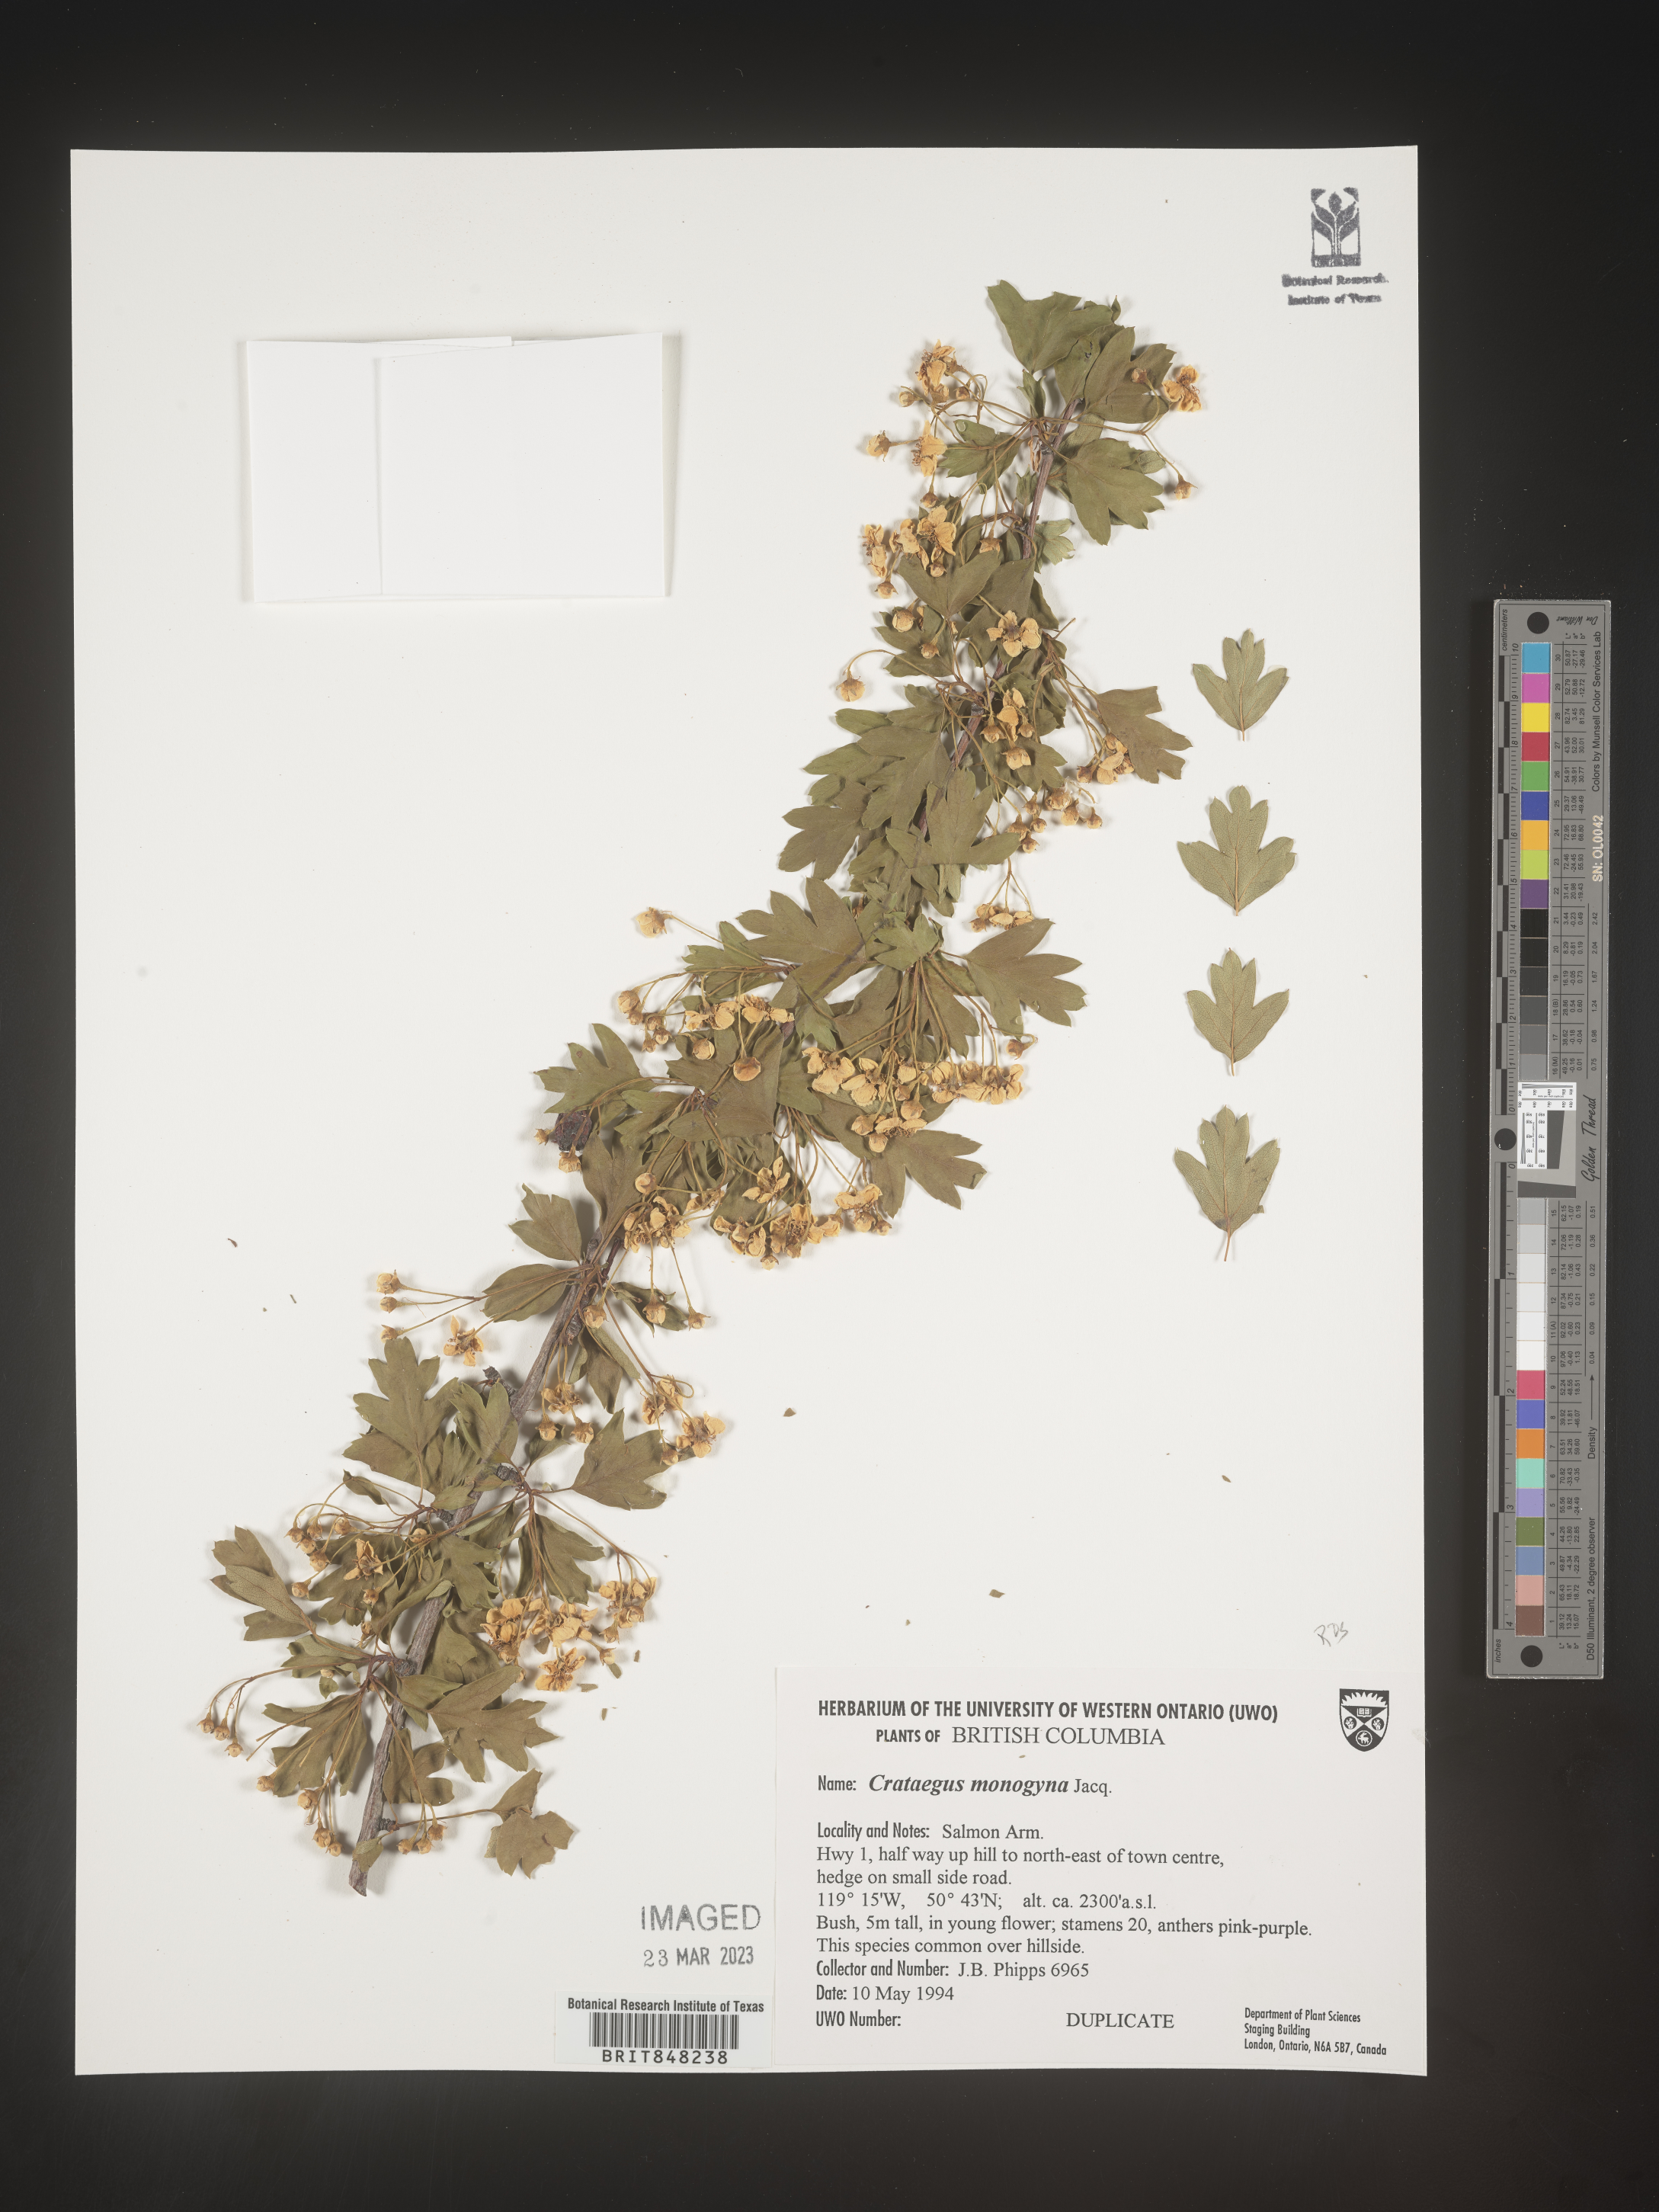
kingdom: Plantae
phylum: Tracheophyta
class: Magnoliopsida
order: Rosales
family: Rosaceae
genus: Crataegus
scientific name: Crataegus monogyna
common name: Hawthorn
